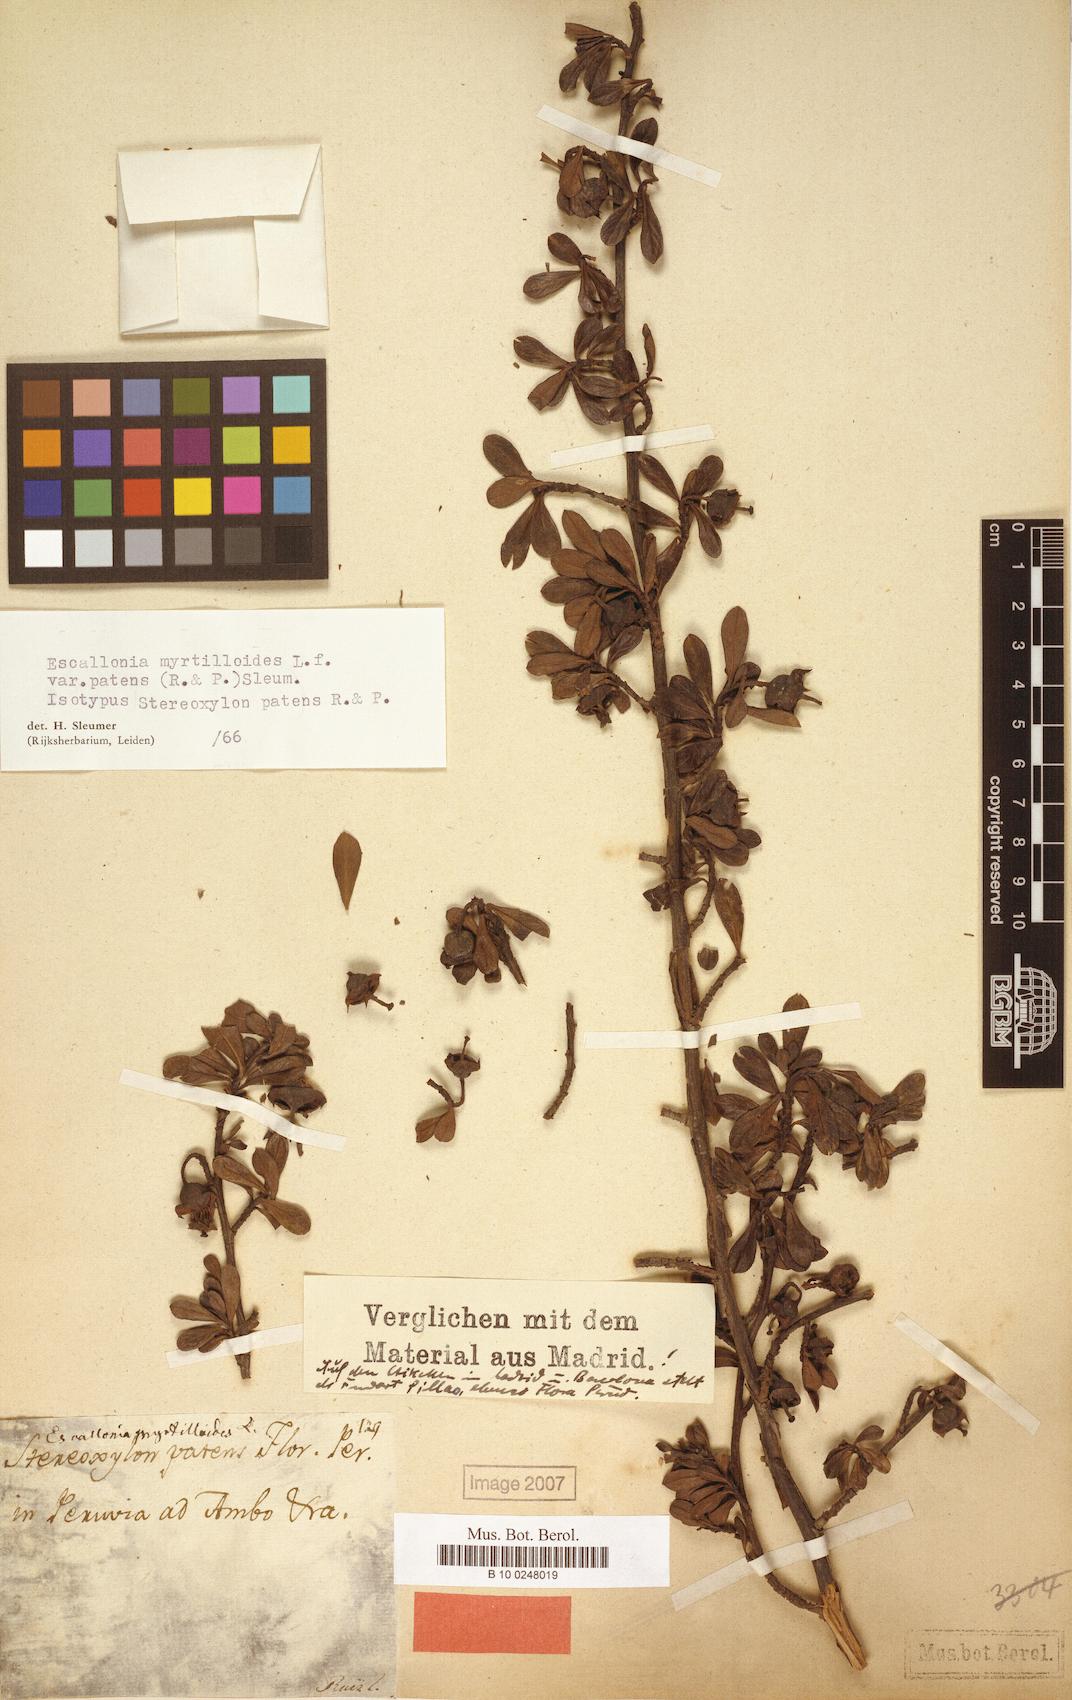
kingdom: Plantae
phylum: Tracheophyta
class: Magnoliopsida
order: Escalloniales
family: Escalloniaceae
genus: Escallonia
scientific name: Escallonia myrtilloides
